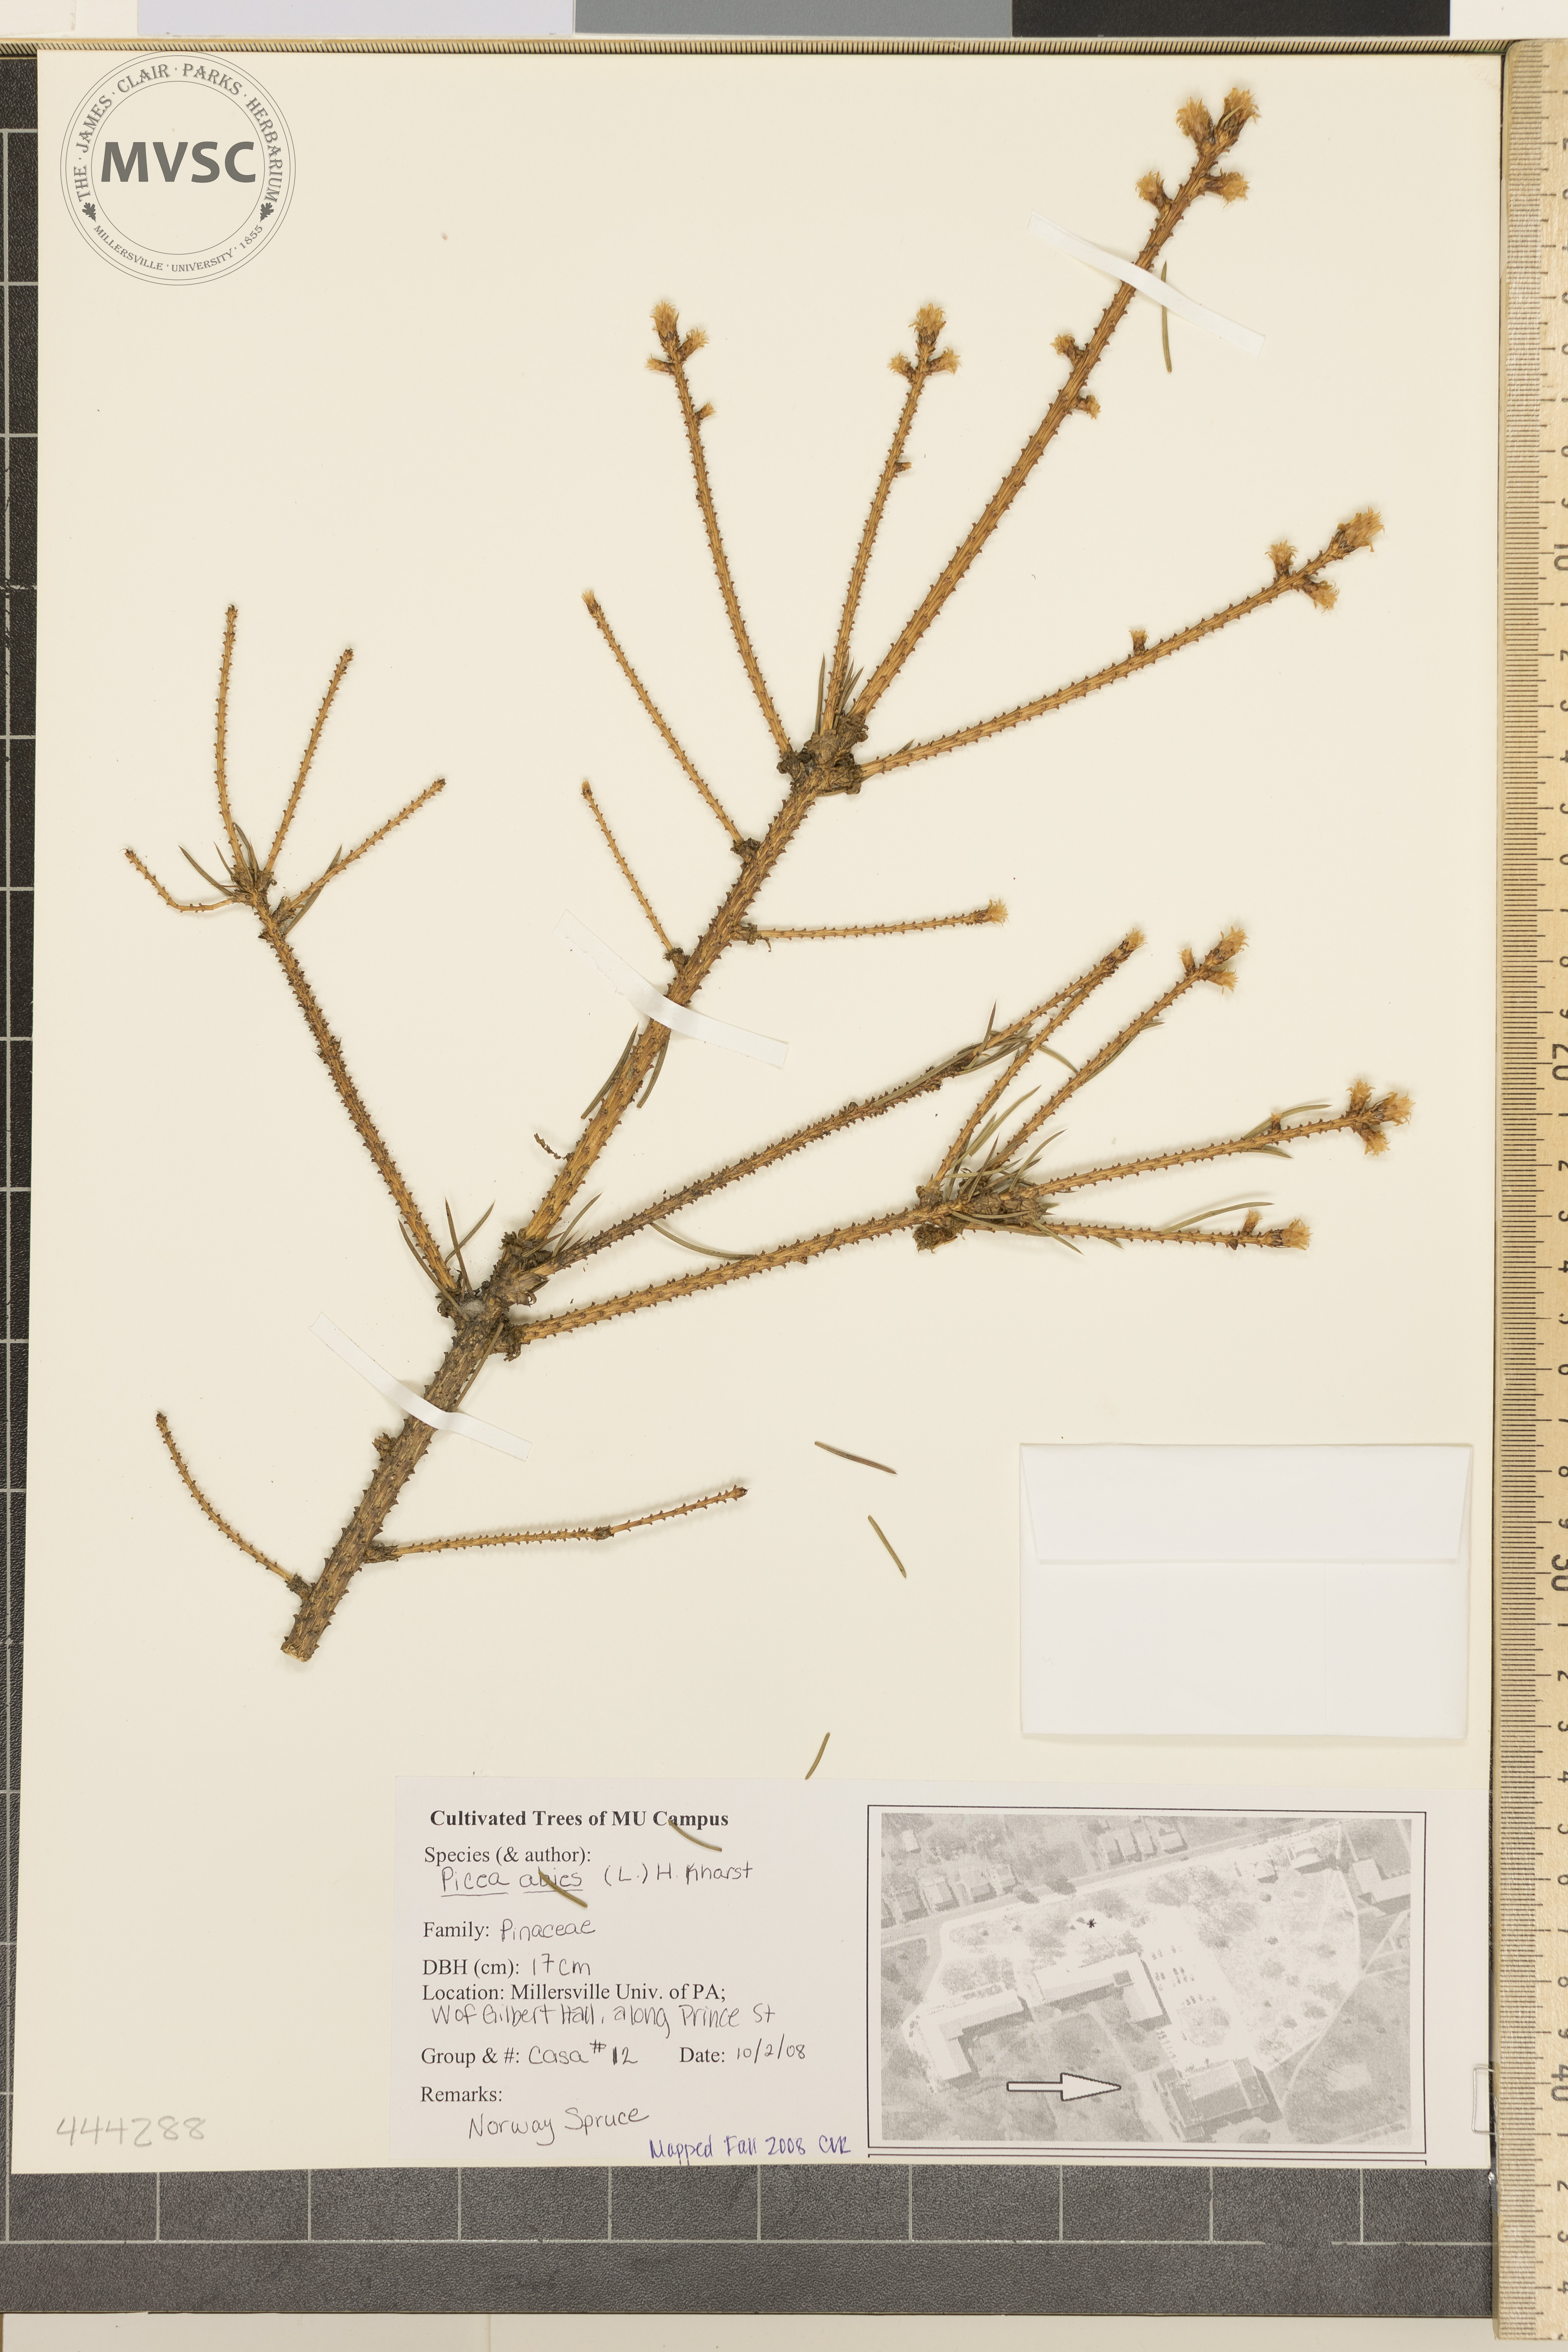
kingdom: Plantae
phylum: Tracheophyta
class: Pinopsida
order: Pinales
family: Pinaceae
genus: Picea
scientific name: Picea abies
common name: Norway Spruce
